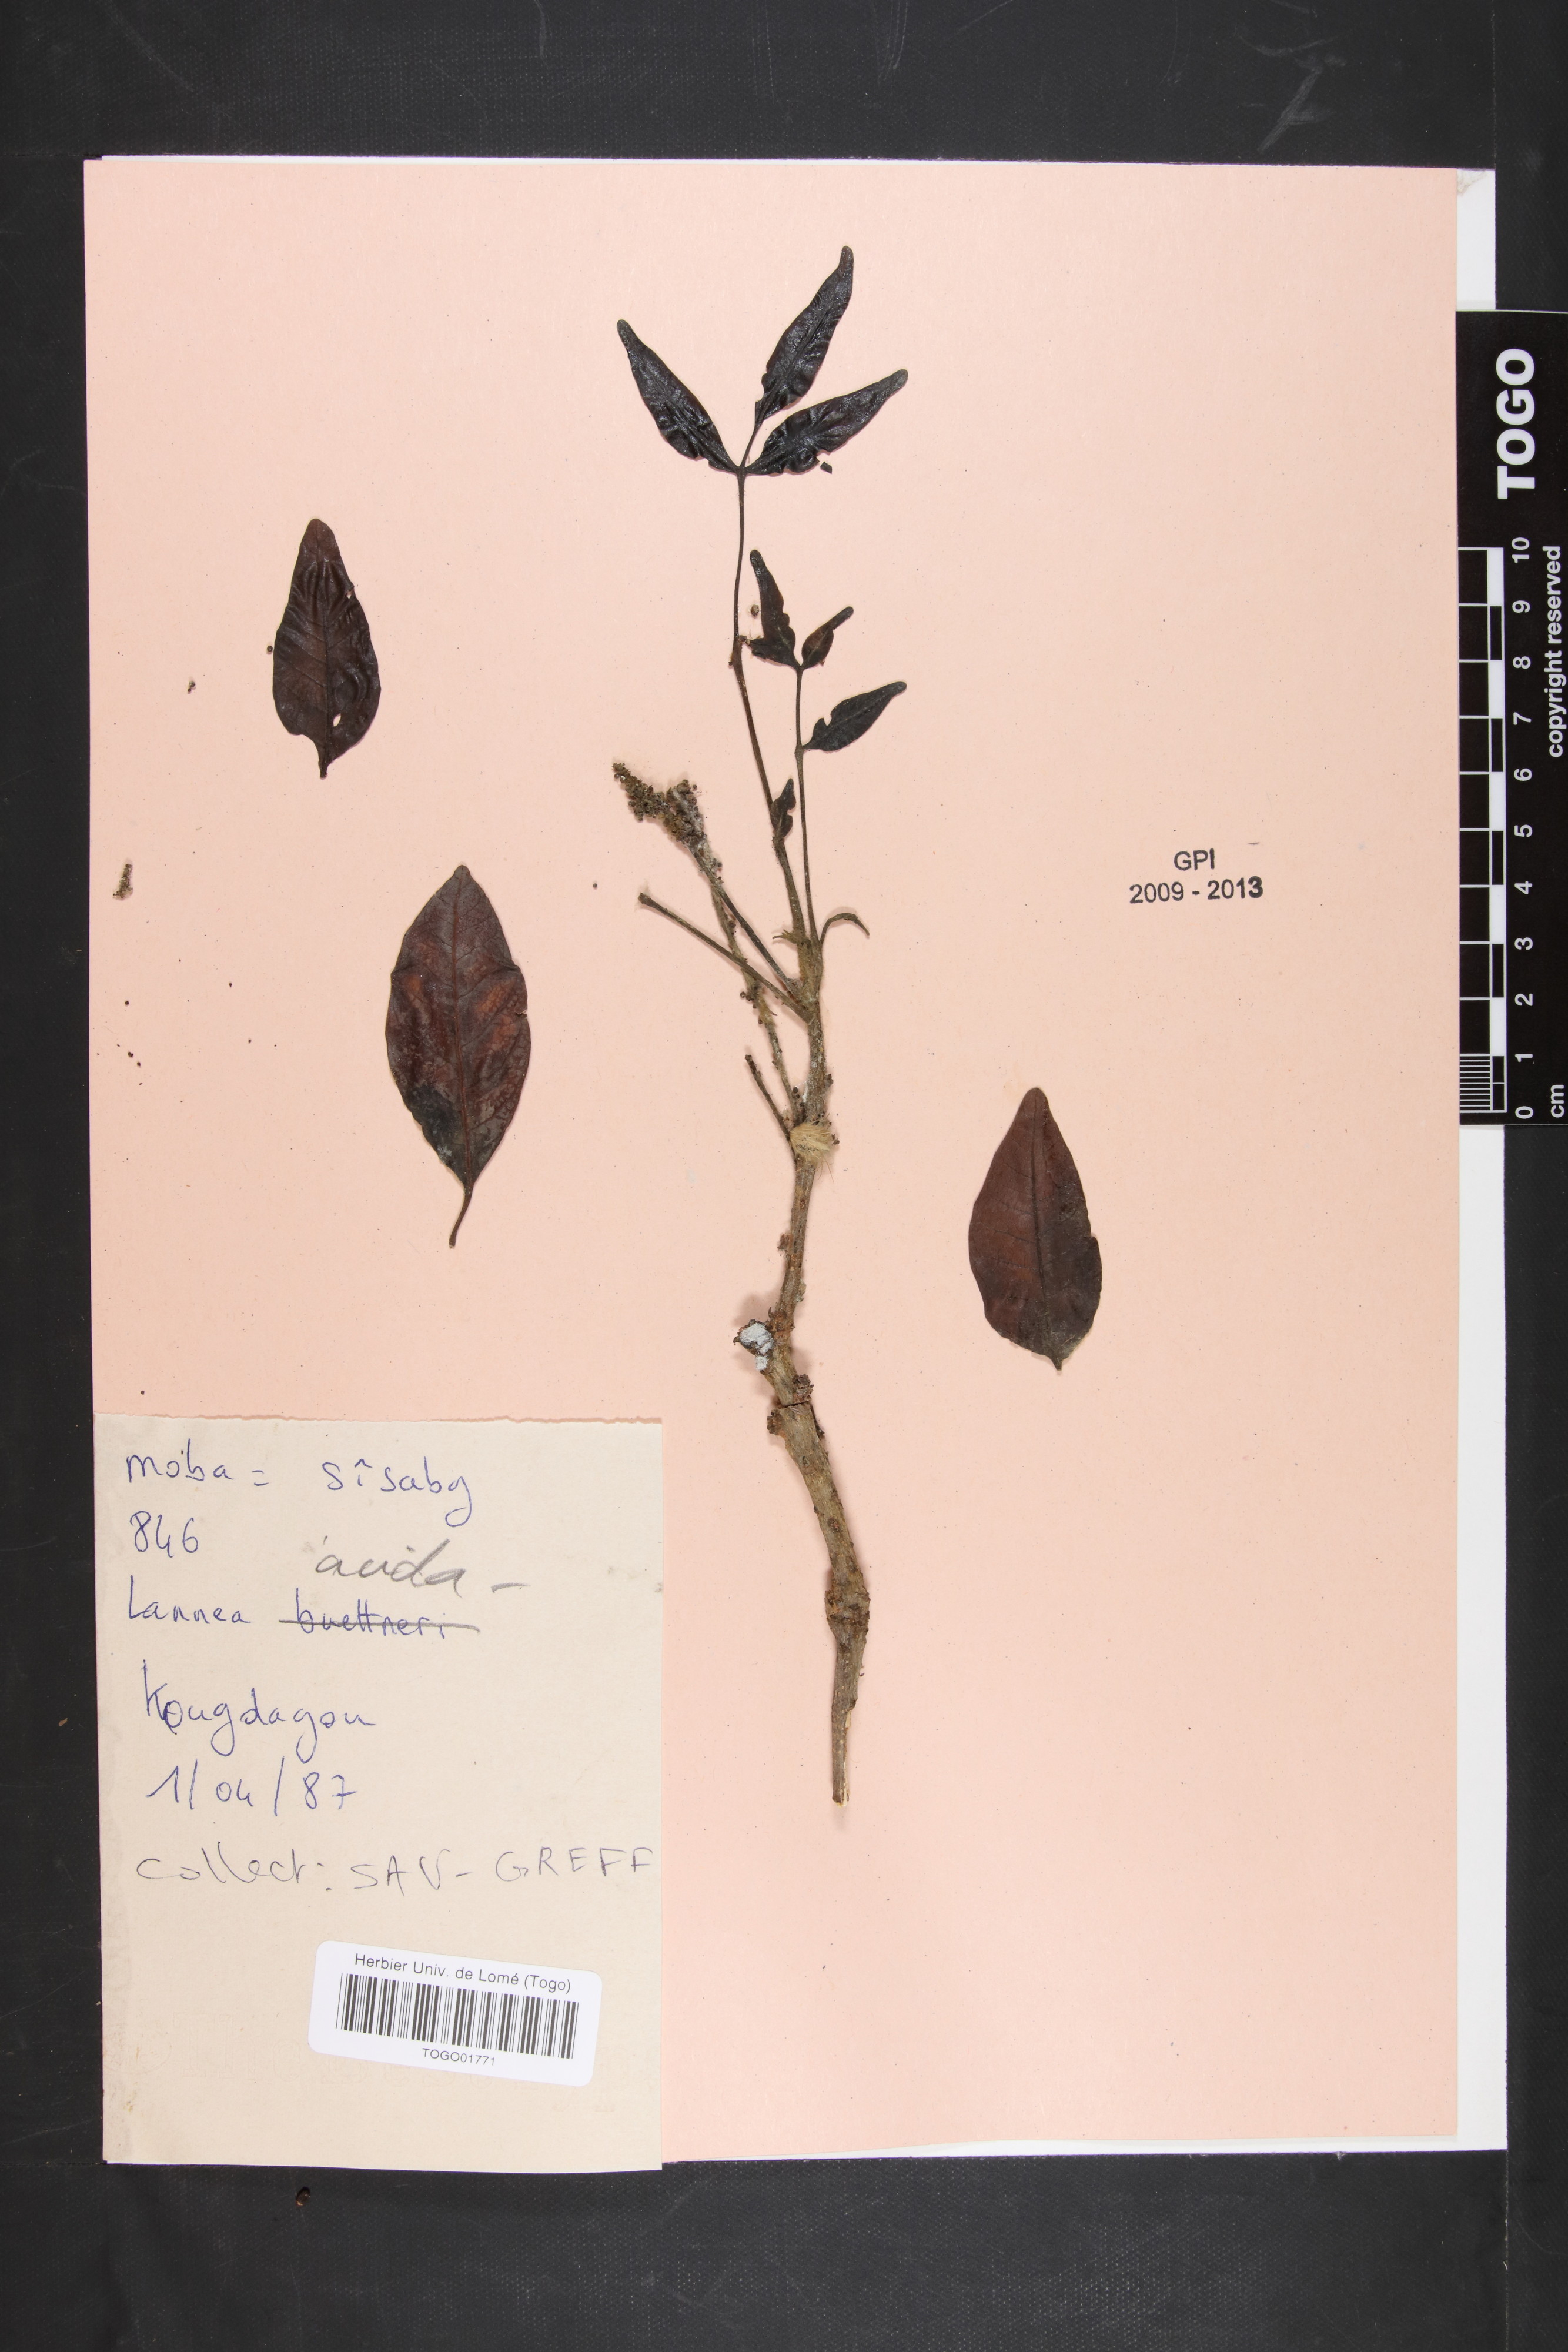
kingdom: Plantae
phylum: Tracheophyta
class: Magnoliopsida
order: Sapindales
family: Anacardiaceae
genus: Lannea
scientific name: Lannea acida
